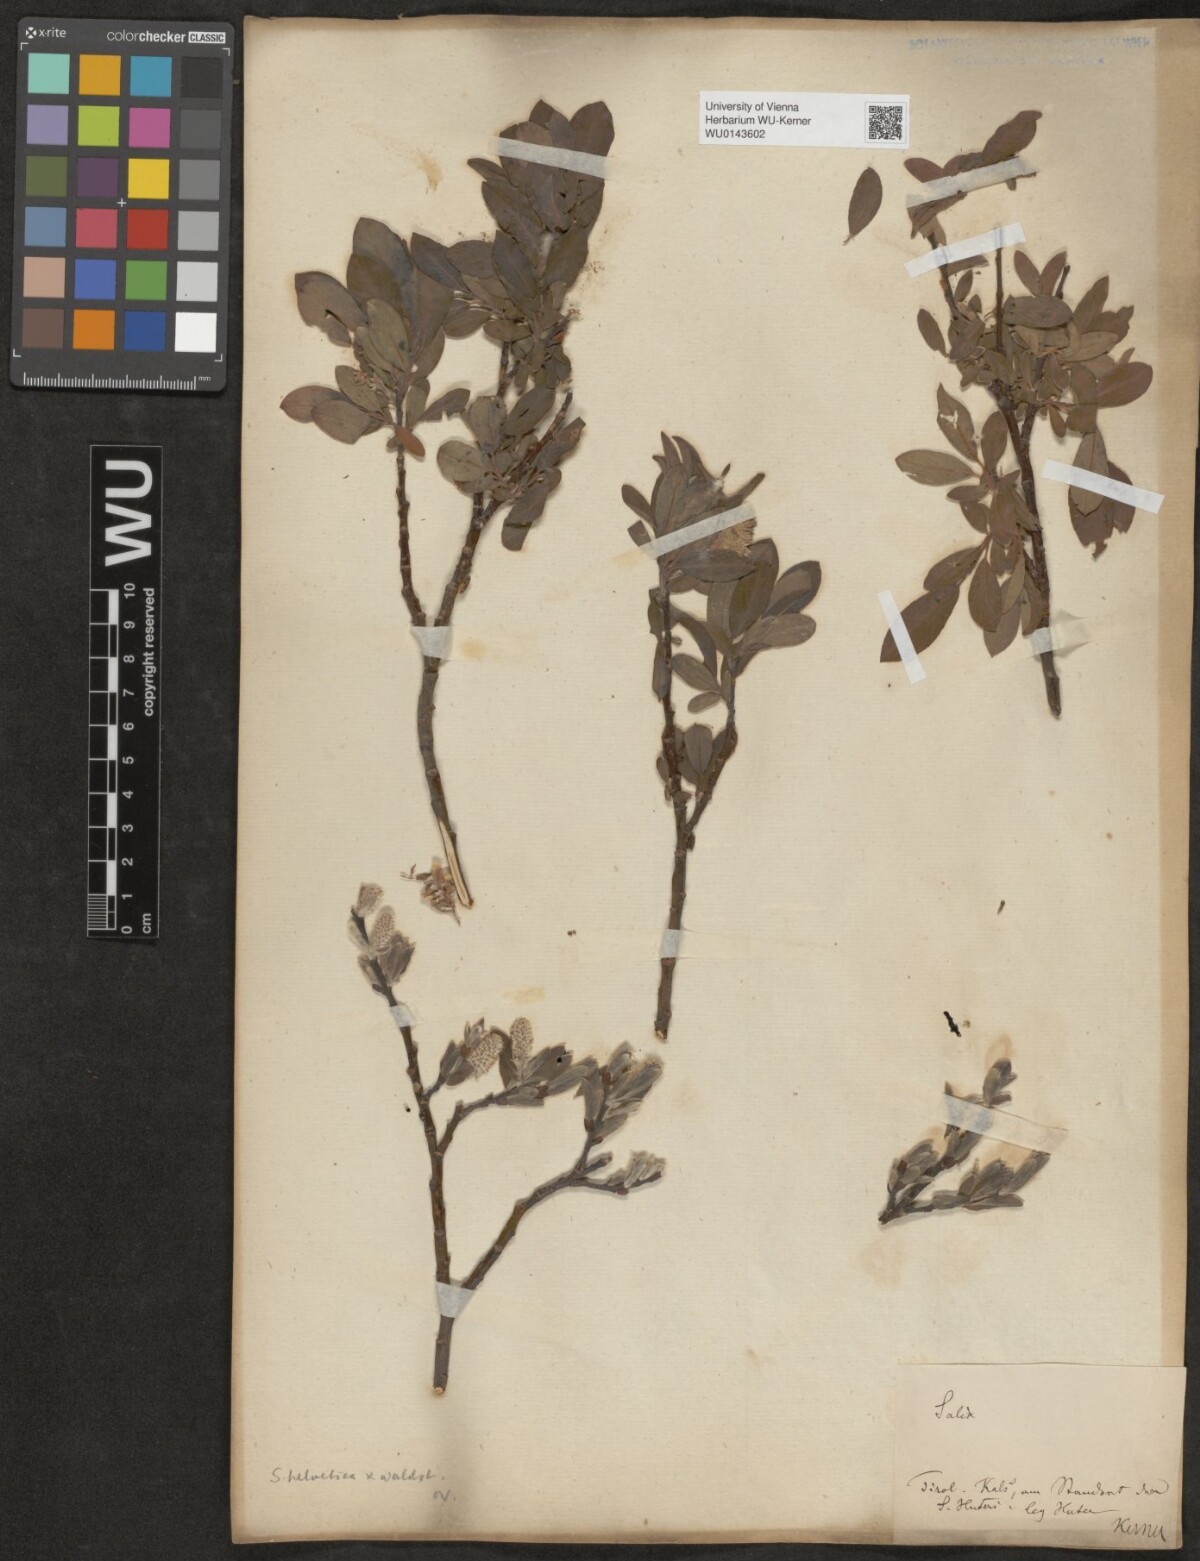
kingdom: Plantae
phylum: Tracheophyta
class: Magnoliopsida
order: Malpighiales
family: Salicaceae
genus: Salix
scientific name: Salix waldsteiniana
